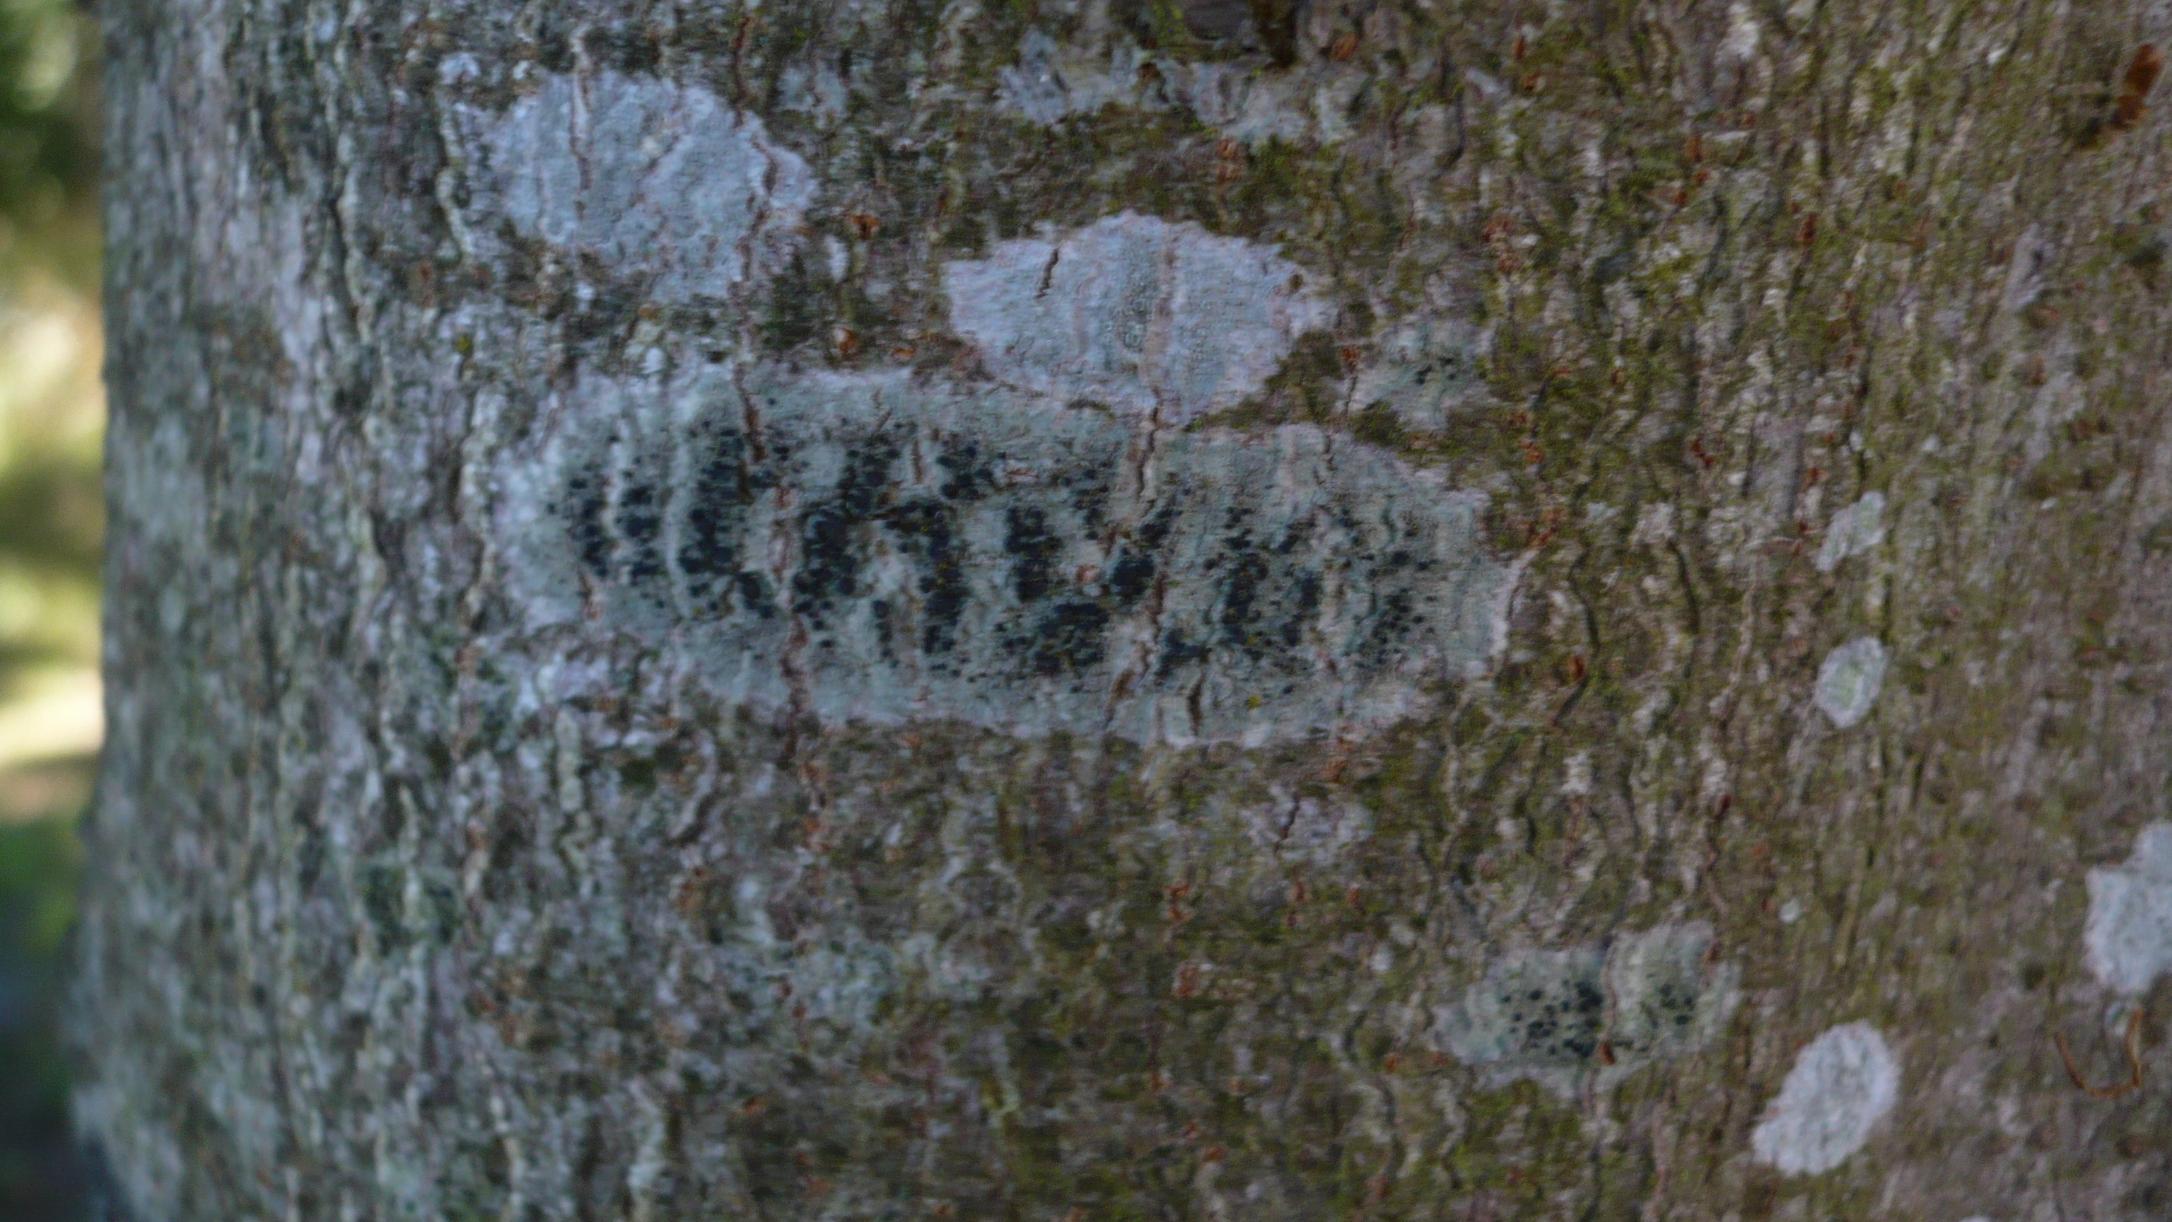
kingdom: Fungi
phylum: Ascomycota
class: Lecanoromycetes
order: Lecanorales
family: Lecanoraceae
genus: Lecidella
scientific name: Lecidella elaeochroma
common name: Grågrøn skivelav
